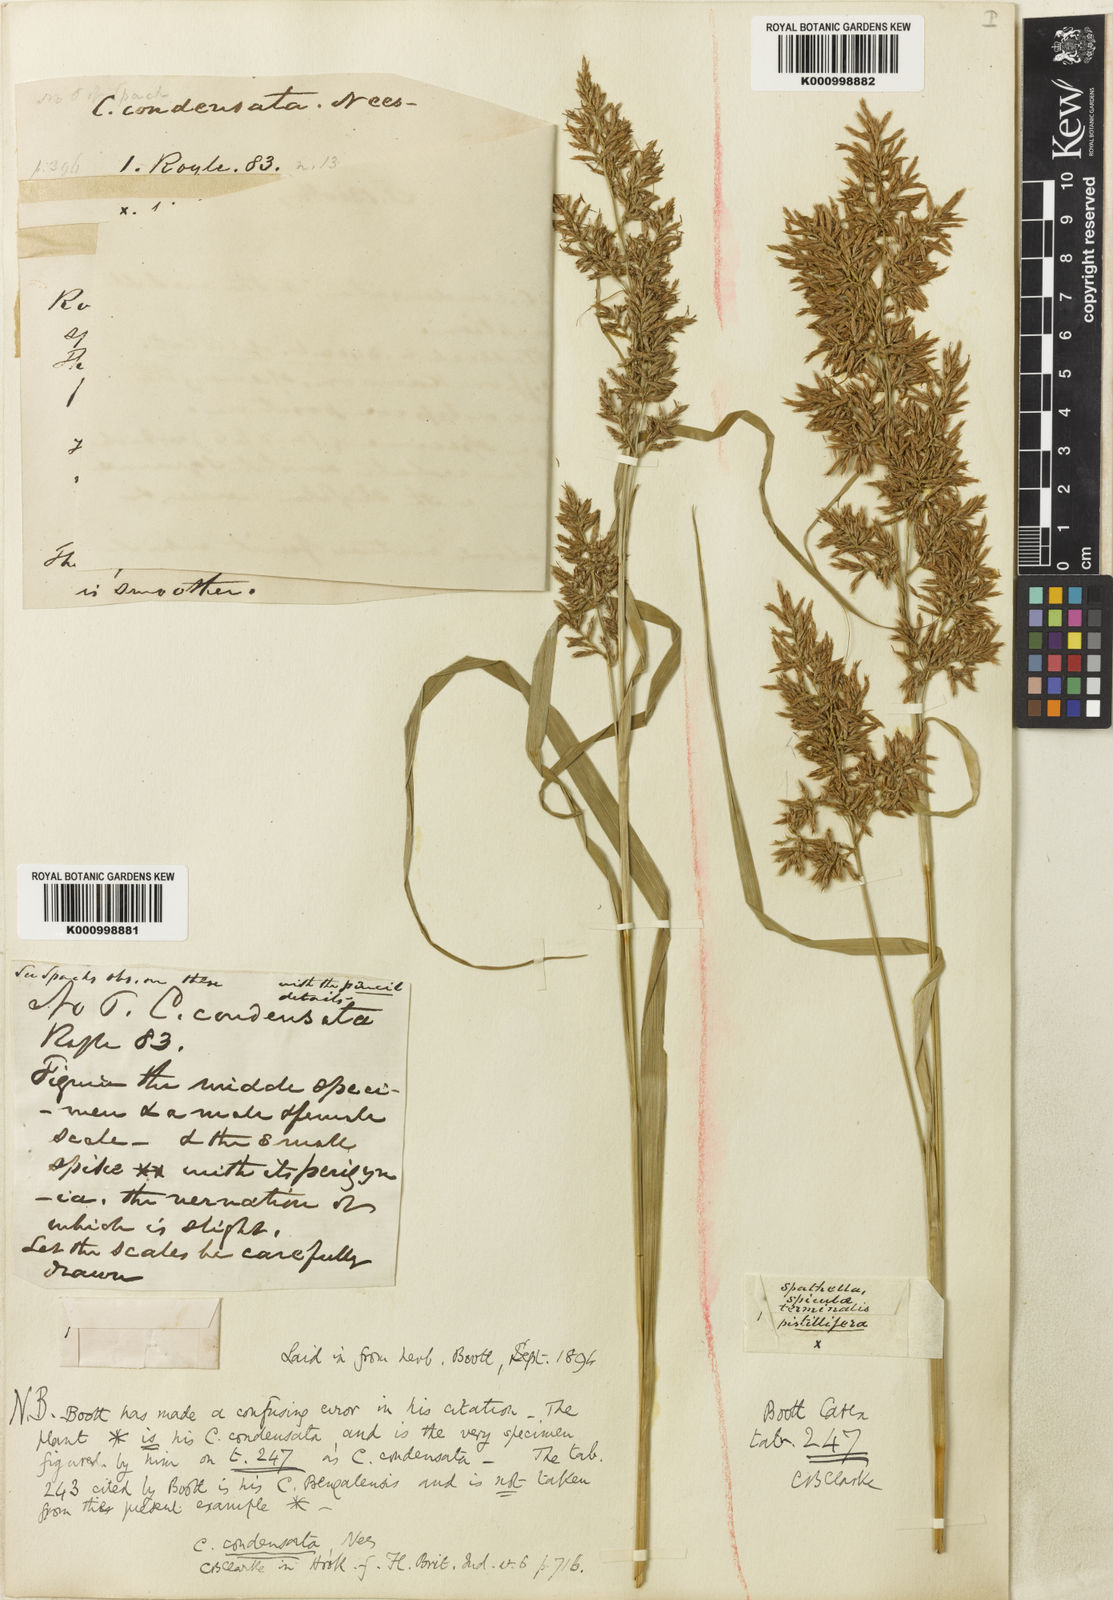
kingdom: Plantae
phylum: Tracheophyta
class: Liliopsida
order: Poales
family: Cyperaceae
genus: Carex
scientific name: Carex condensata
